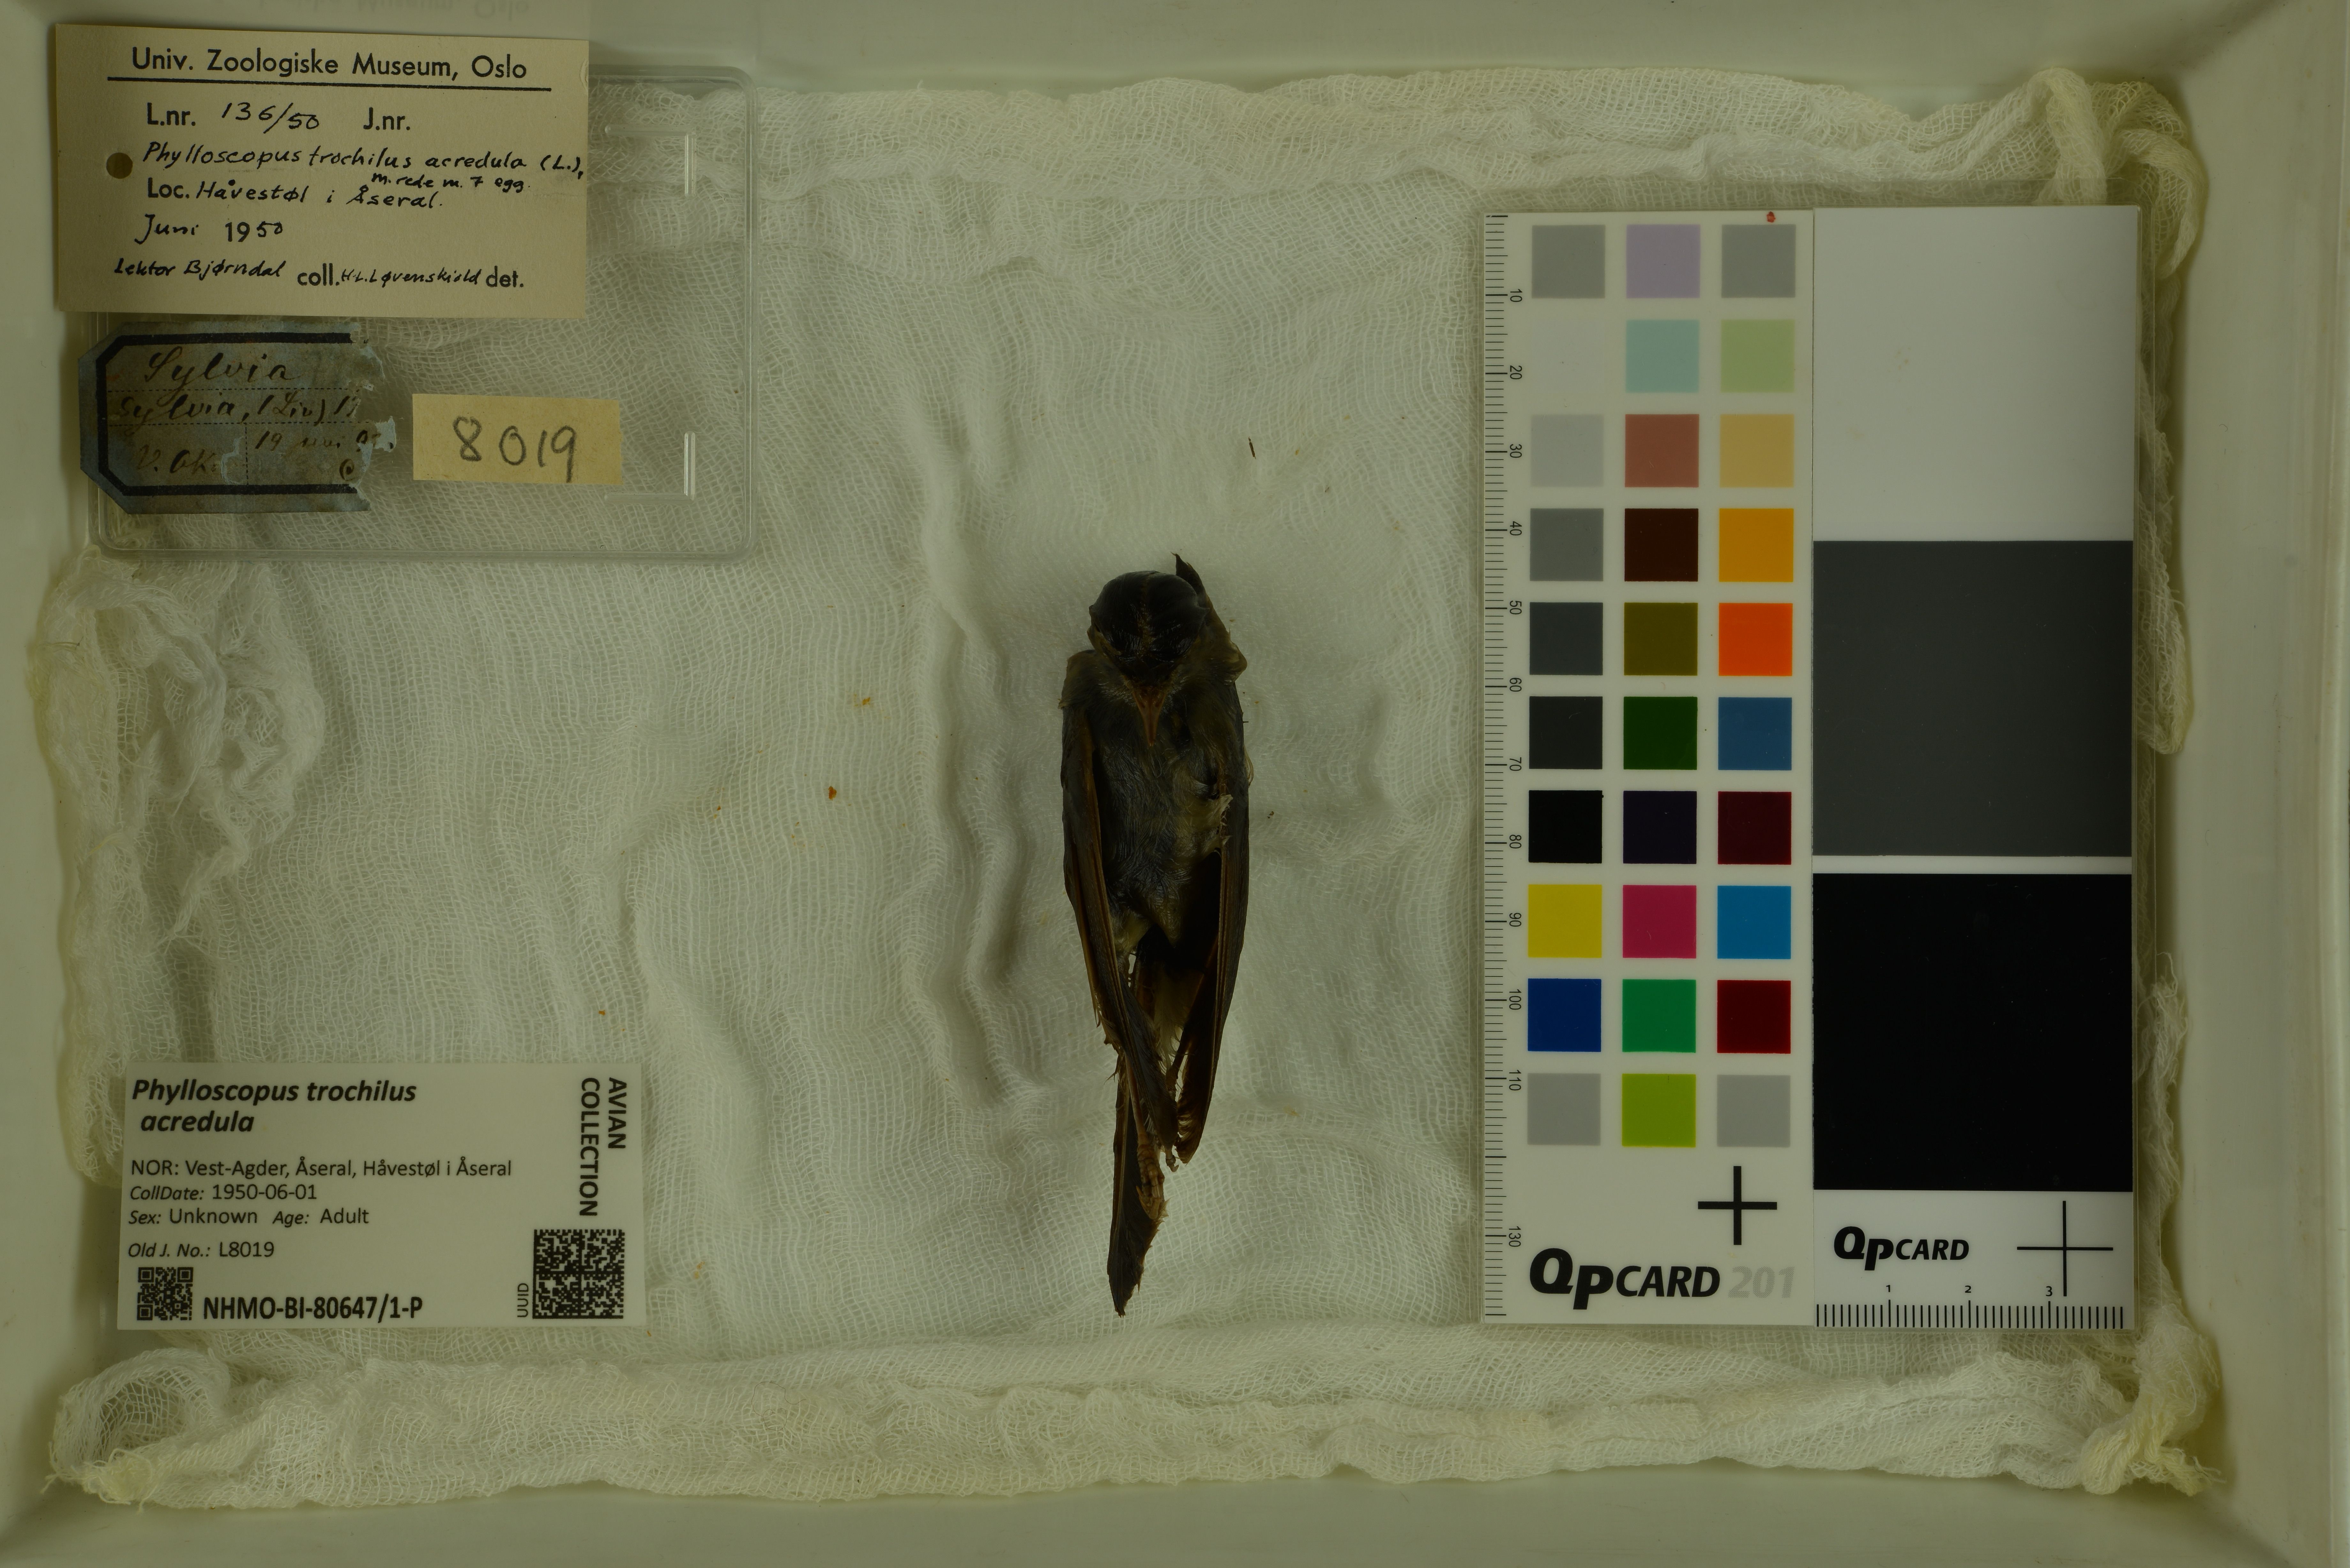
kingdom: Animalia
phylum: Chordata
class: Aves
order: Passeriformes
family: Phylloscopidae
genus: Phylloscopus
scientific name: Phylloscopus trochilus
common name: Willow warbler
